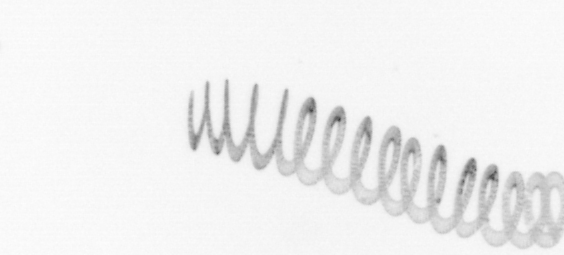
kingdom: Chromista
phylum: Ochrophyta
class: Bacillariophyceae
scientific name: Bacillariophyceae
